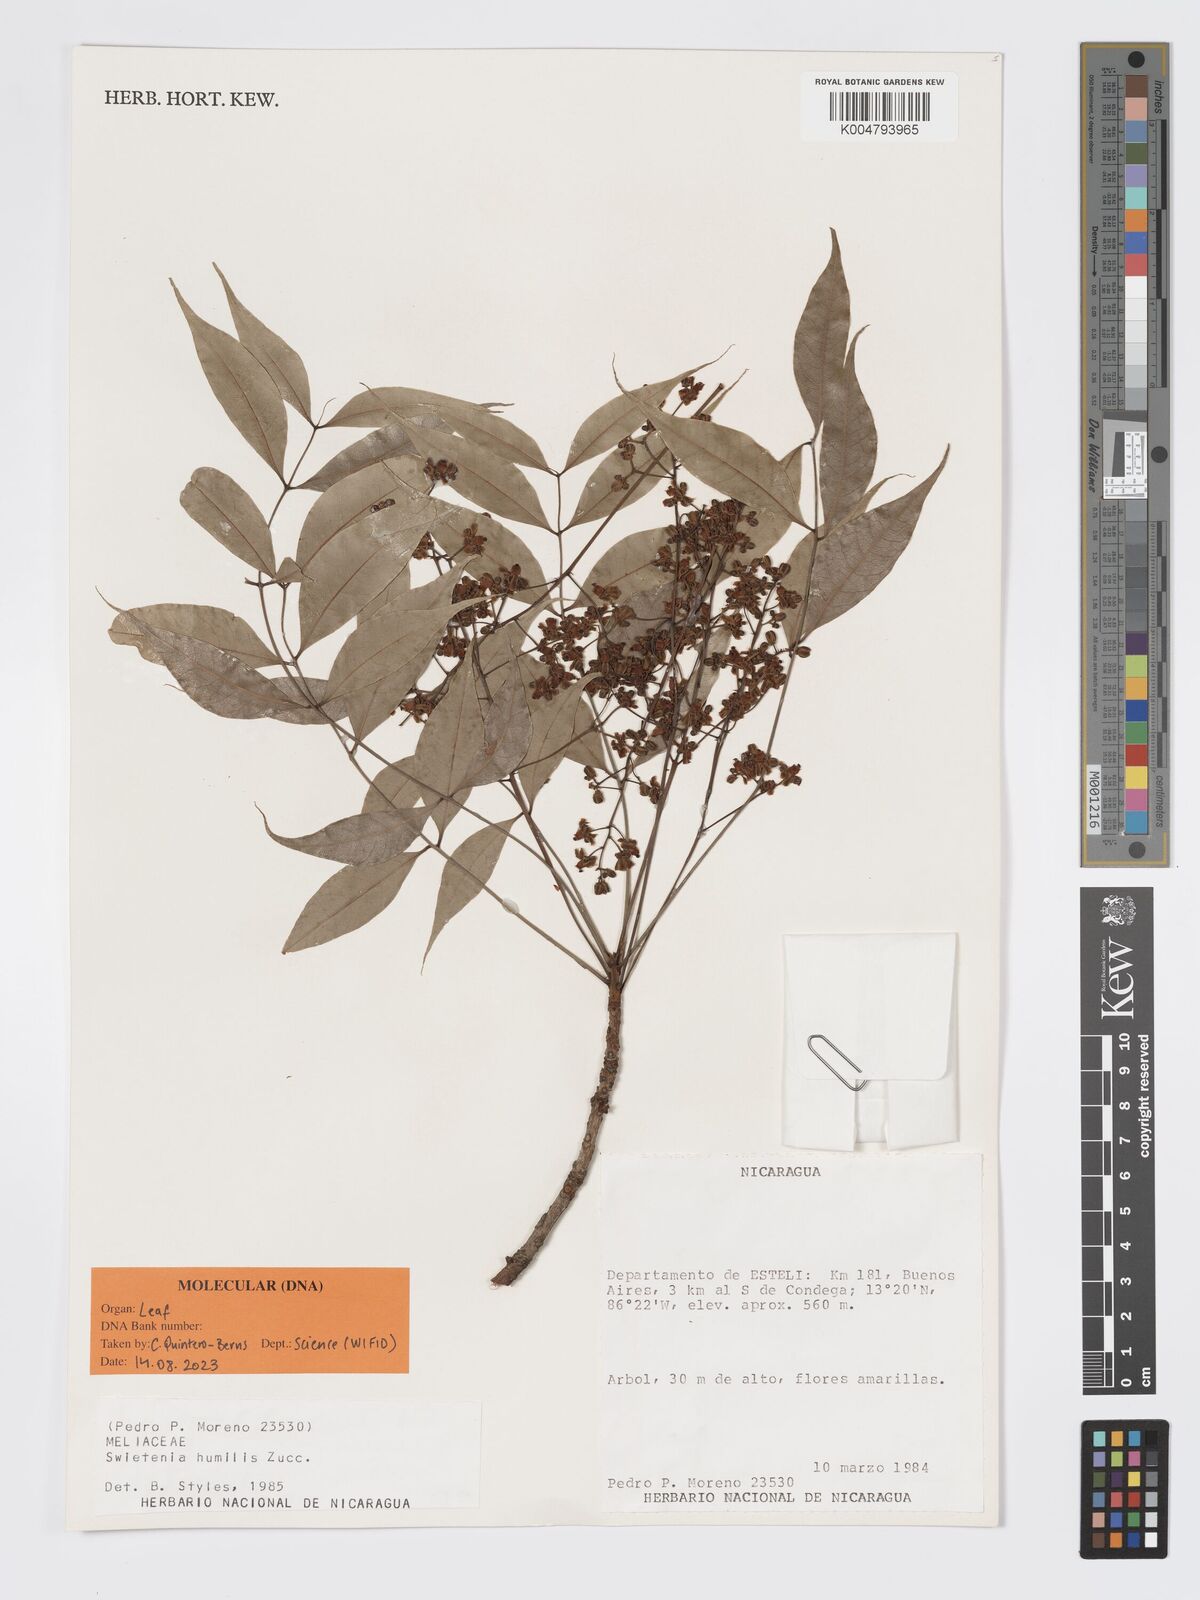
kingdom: Plantae
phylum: Tracheophyta
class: Magnoliopsida
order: Sapindales
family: Meliaceae
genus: Swietenia
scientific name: Swietenia humilis
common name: Pacific coast mahogany
